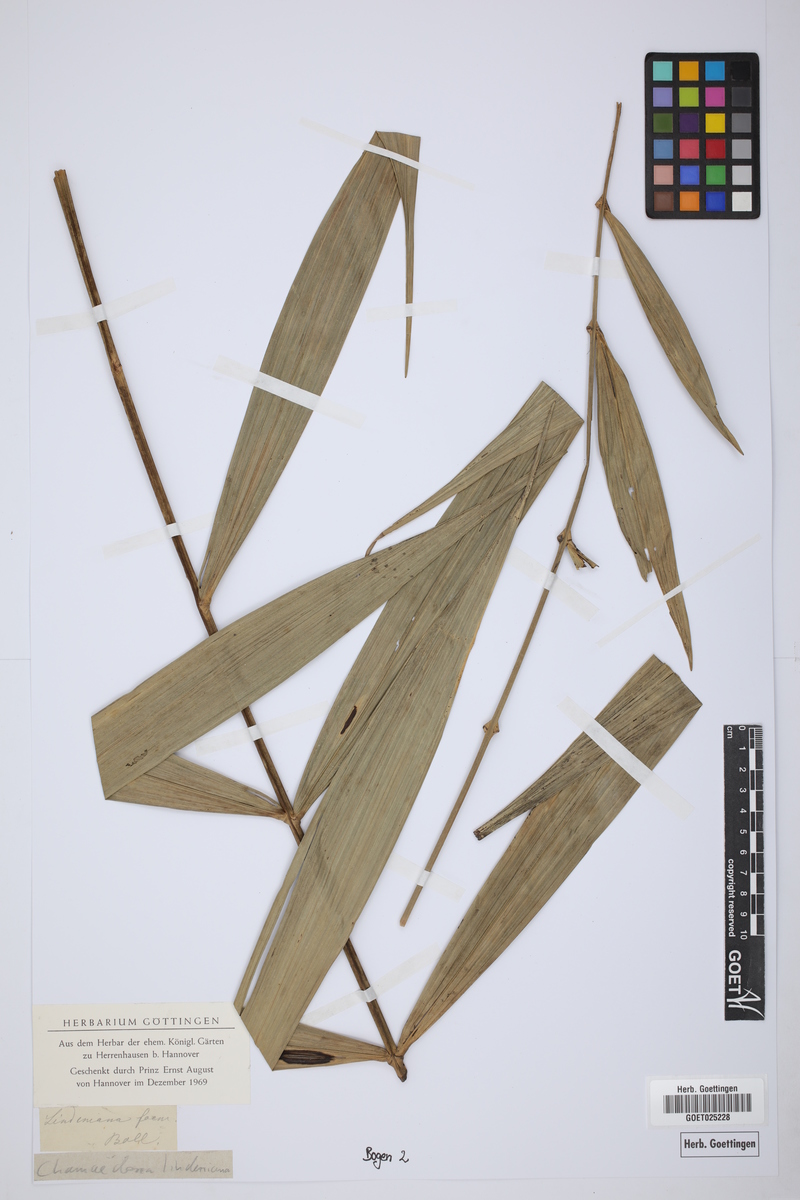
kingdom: Plantae
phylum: Tracheophyta
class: Liliopsida
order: Arecales
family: Arecaceae
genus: Chamaedorea
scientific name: Chamaedorea cataractarum
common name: Cascade palm
